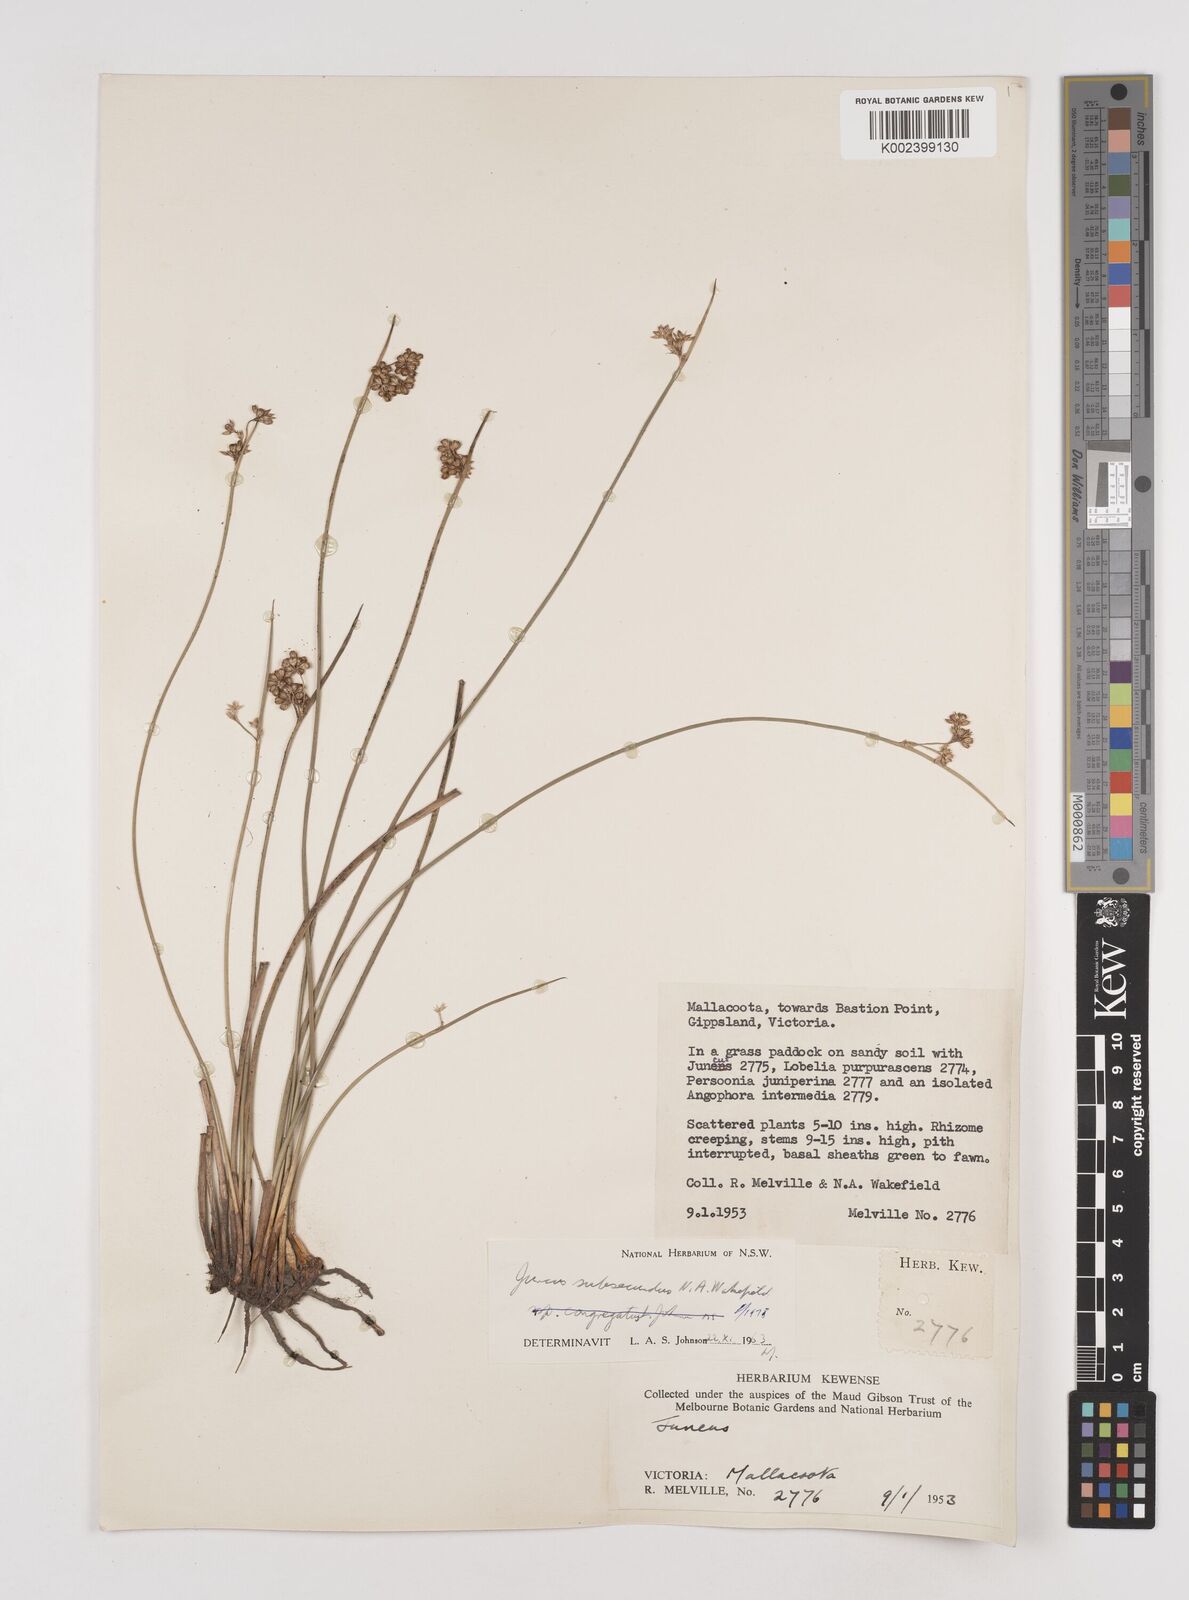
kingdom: Plantae
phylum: Tracheophyta
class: Liliopsida
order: Poales
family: Juncaceae
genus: Juncus
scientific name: Juncus subsecundus
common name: Fingered rush
